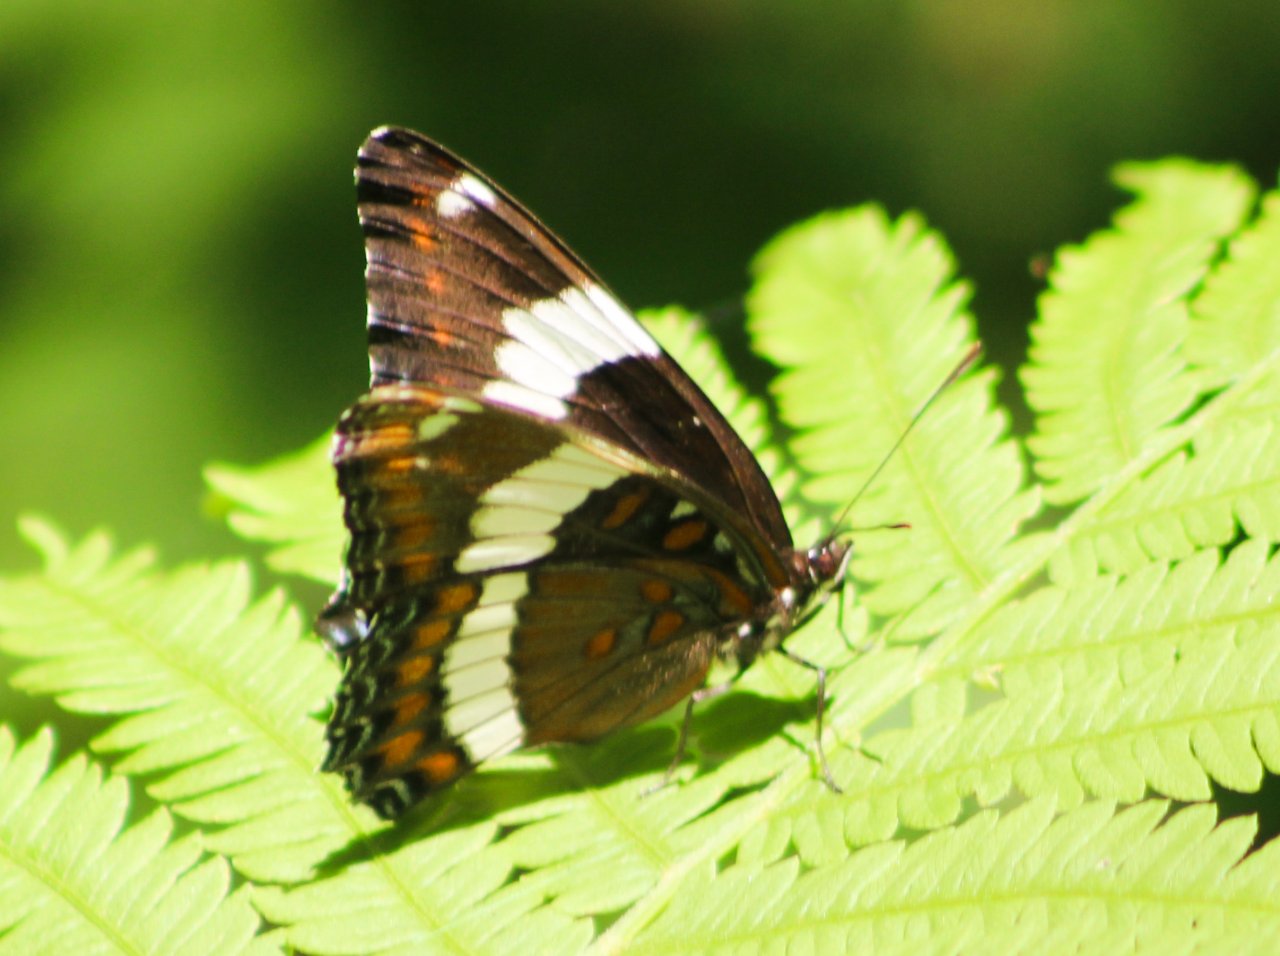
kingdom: Animalia
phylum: Arthropoda
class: Insecta
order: Lepidoptera
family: Nymphalidae
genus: Limenitis
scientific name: Limenitis arthemis
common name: Red-spotted Admiral
